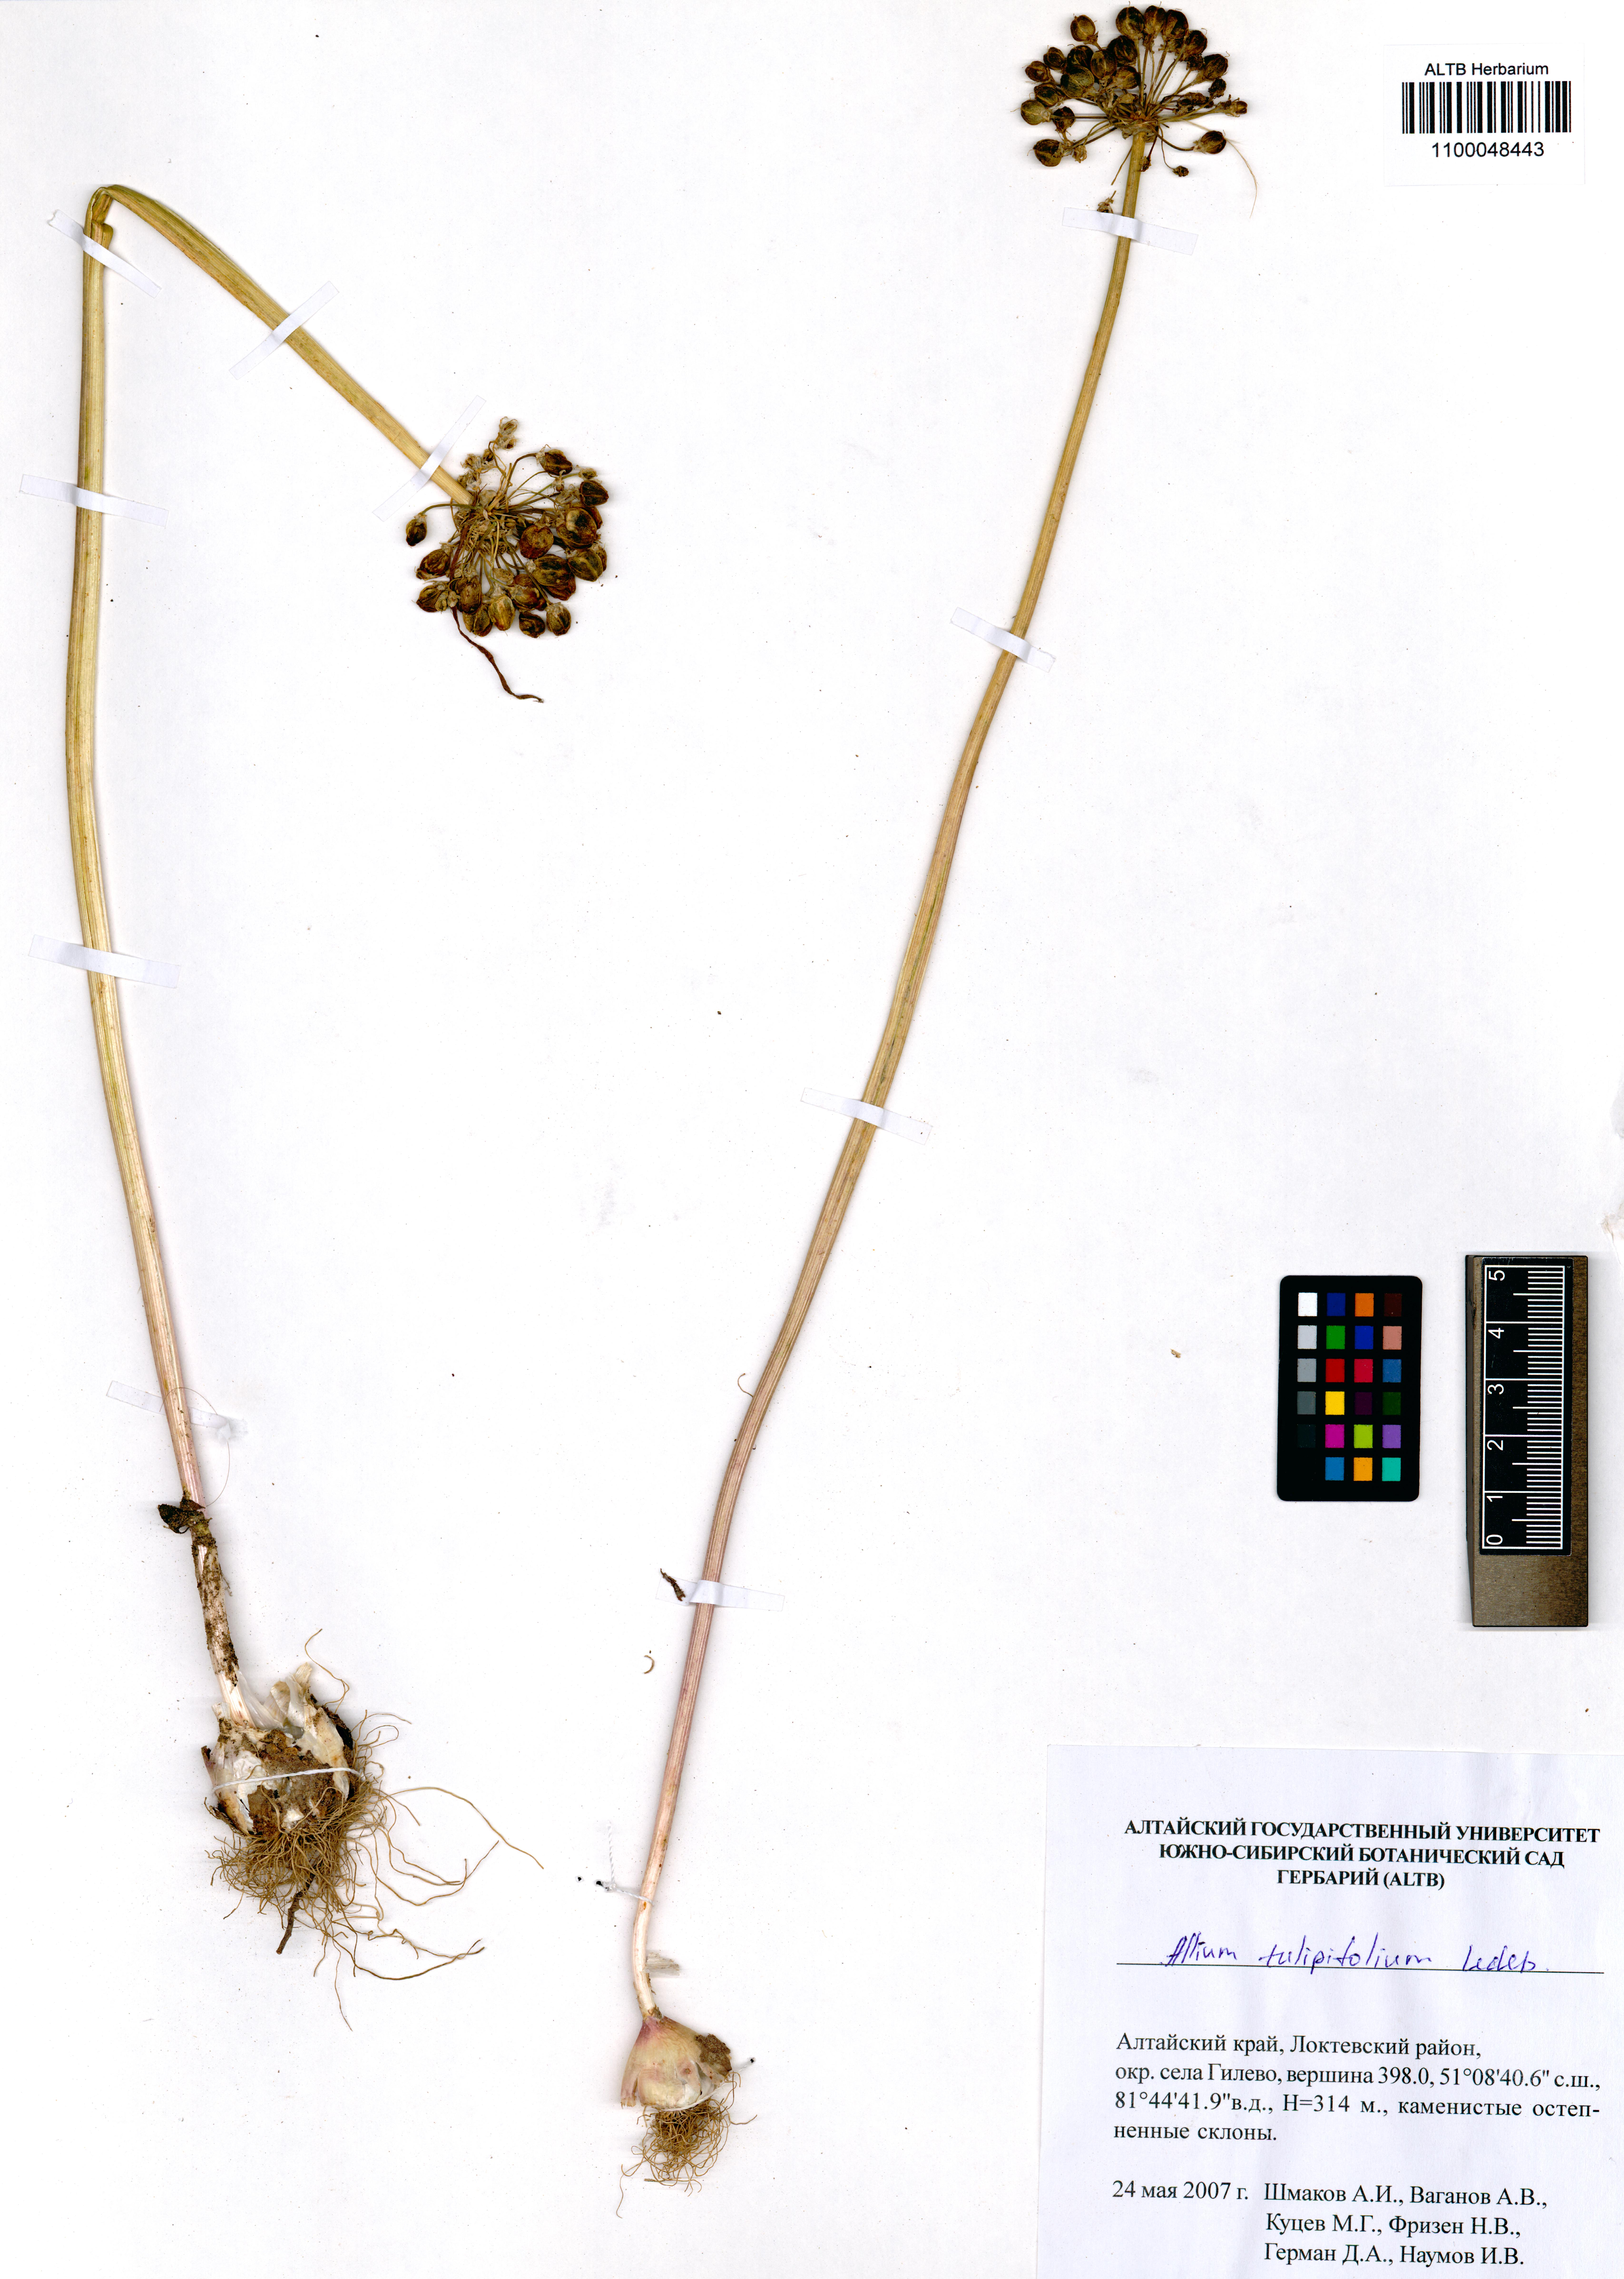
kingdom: Plantae
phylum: Tracheophyta
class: Liliopsida
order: Asparagales
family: Amaryllidaceae
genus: Allium
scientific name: Allium tulipifolium
